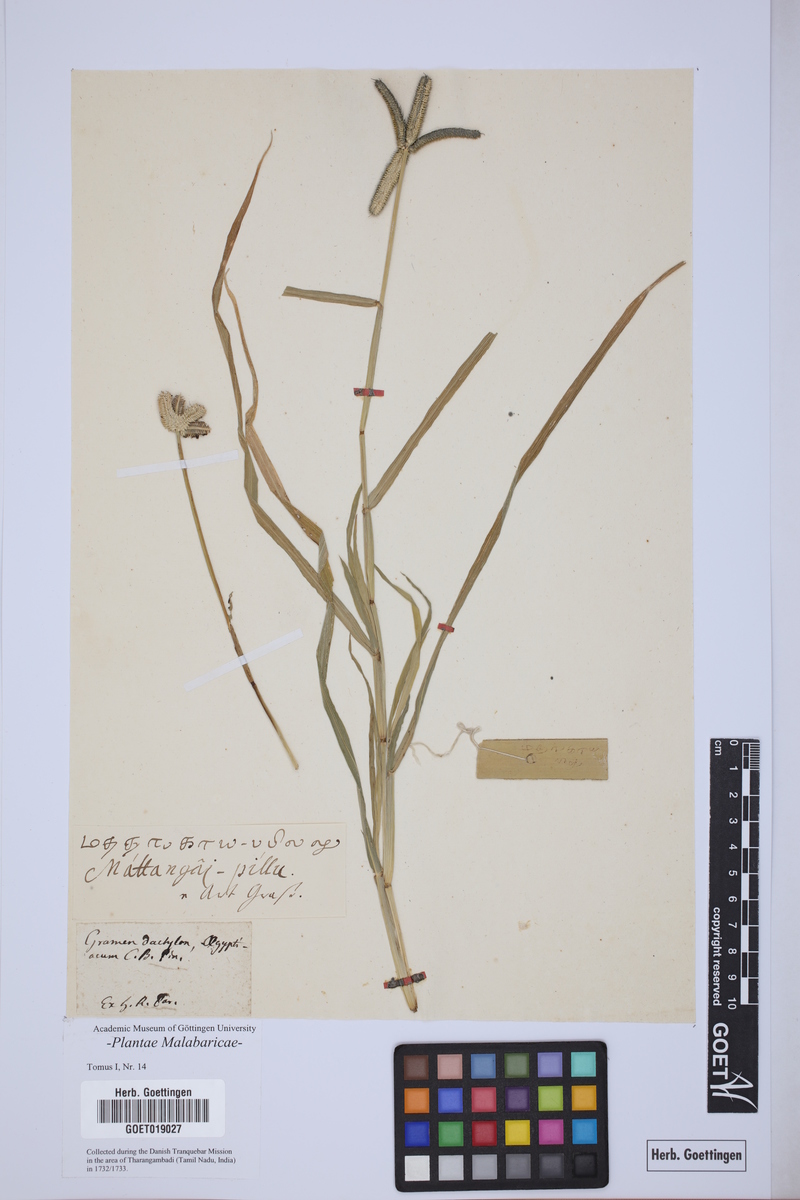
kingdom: Plantae
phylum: Tracheophyta
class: Liliopsida
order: Poales
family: Poaceae
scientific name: Poaceae
